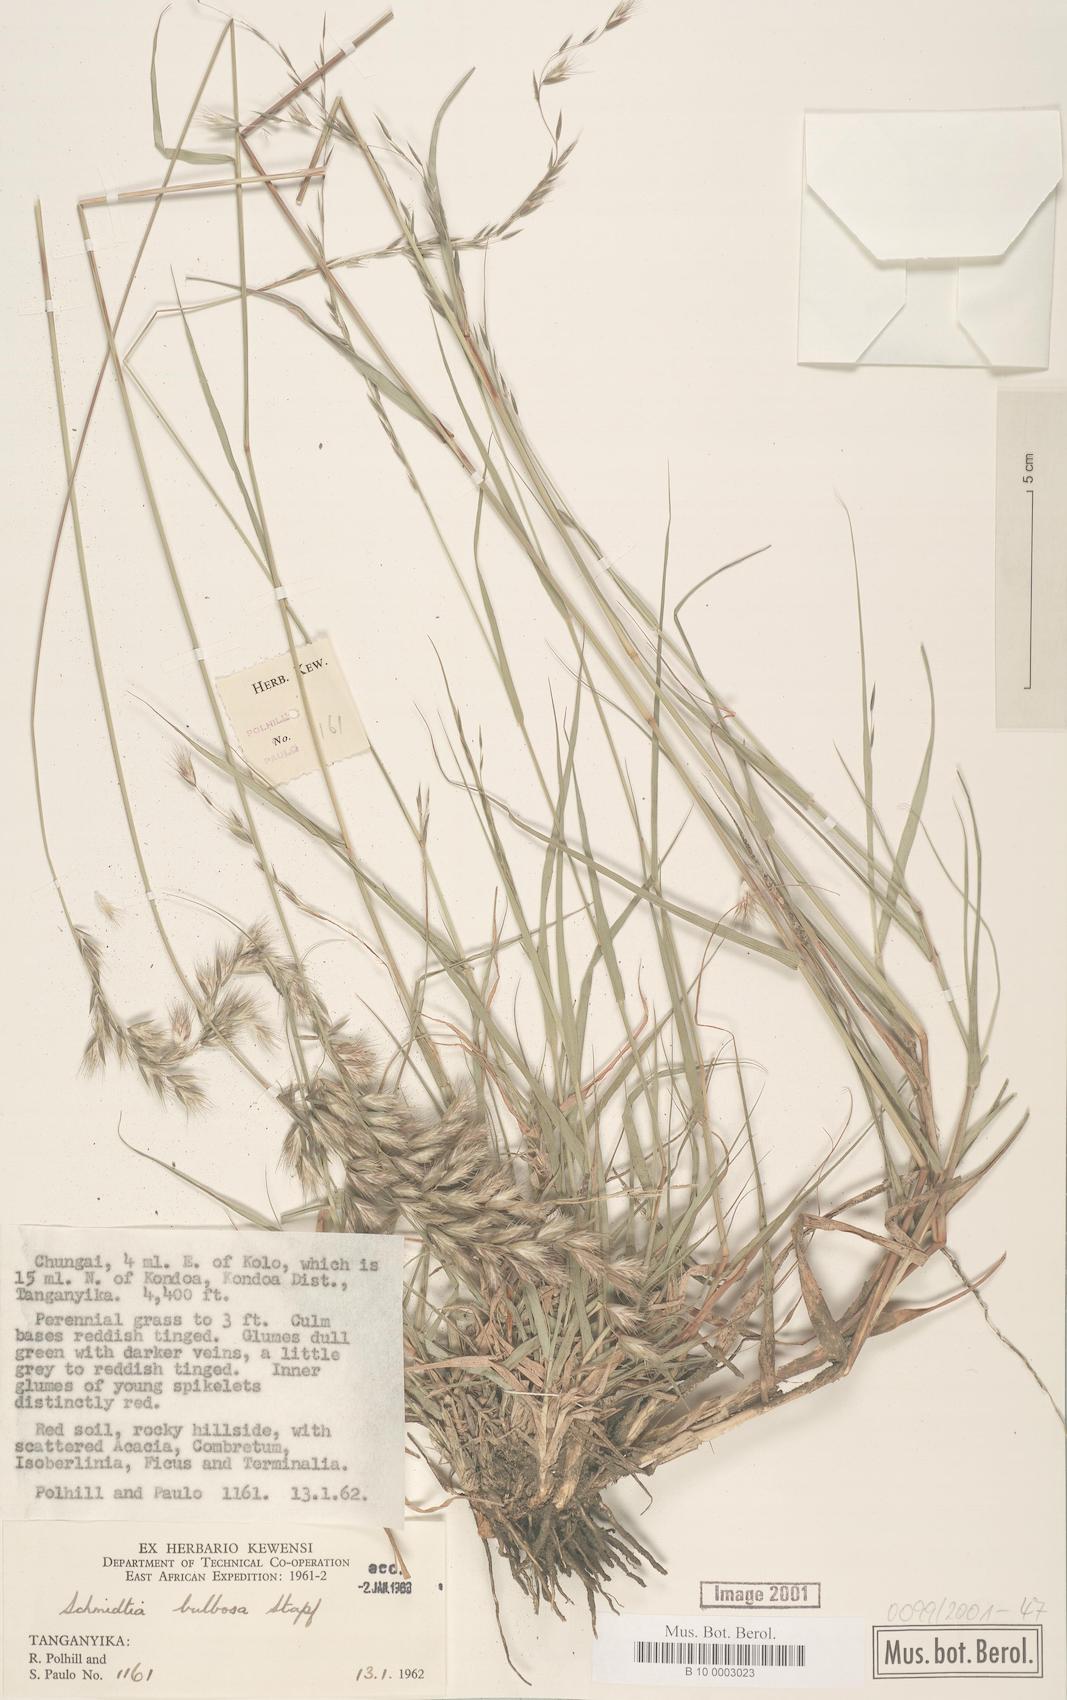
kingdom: Plantae
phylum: Tracheophyta
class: Liliopsida
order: Poales
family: Poaceae
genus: Schmidtia
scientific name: Schmidtia pappophoroides
